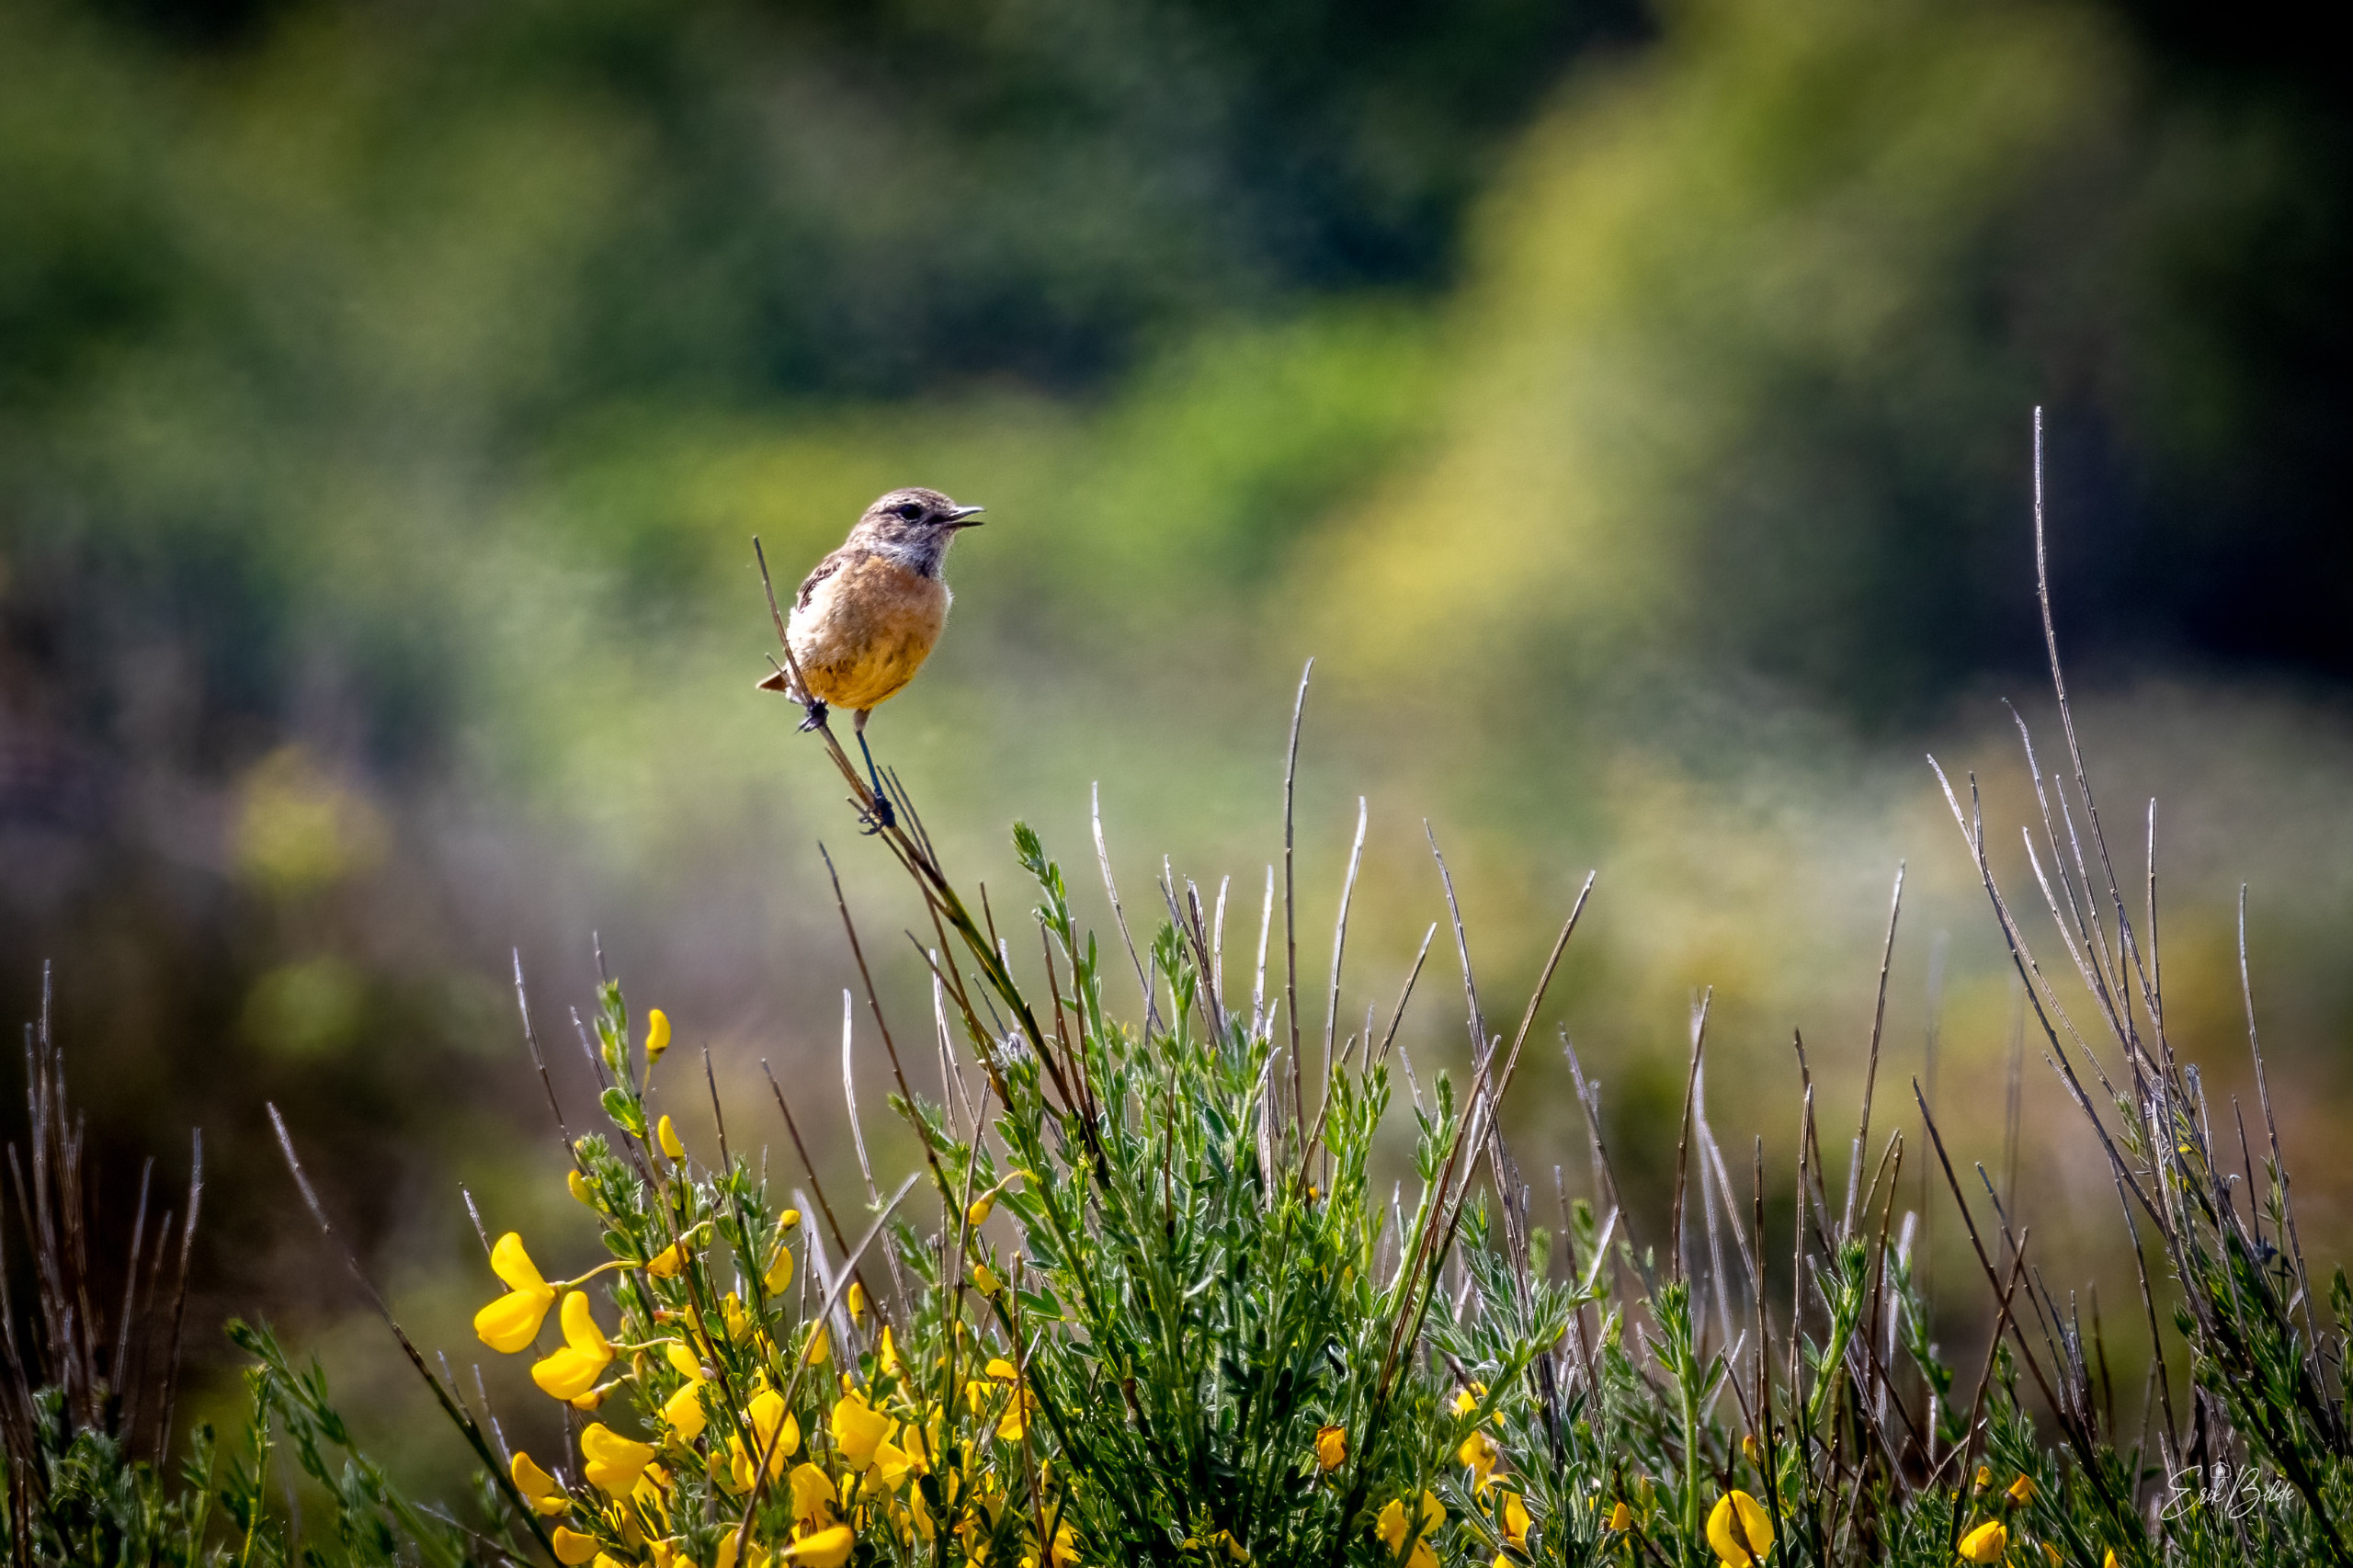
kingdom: Animalia
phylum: Chordata
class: Aves
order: Passeriformes
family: Muscicapidae
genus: Saxicola
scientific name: Saxicola rubicola
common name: Sortstrubet bynkefugl
